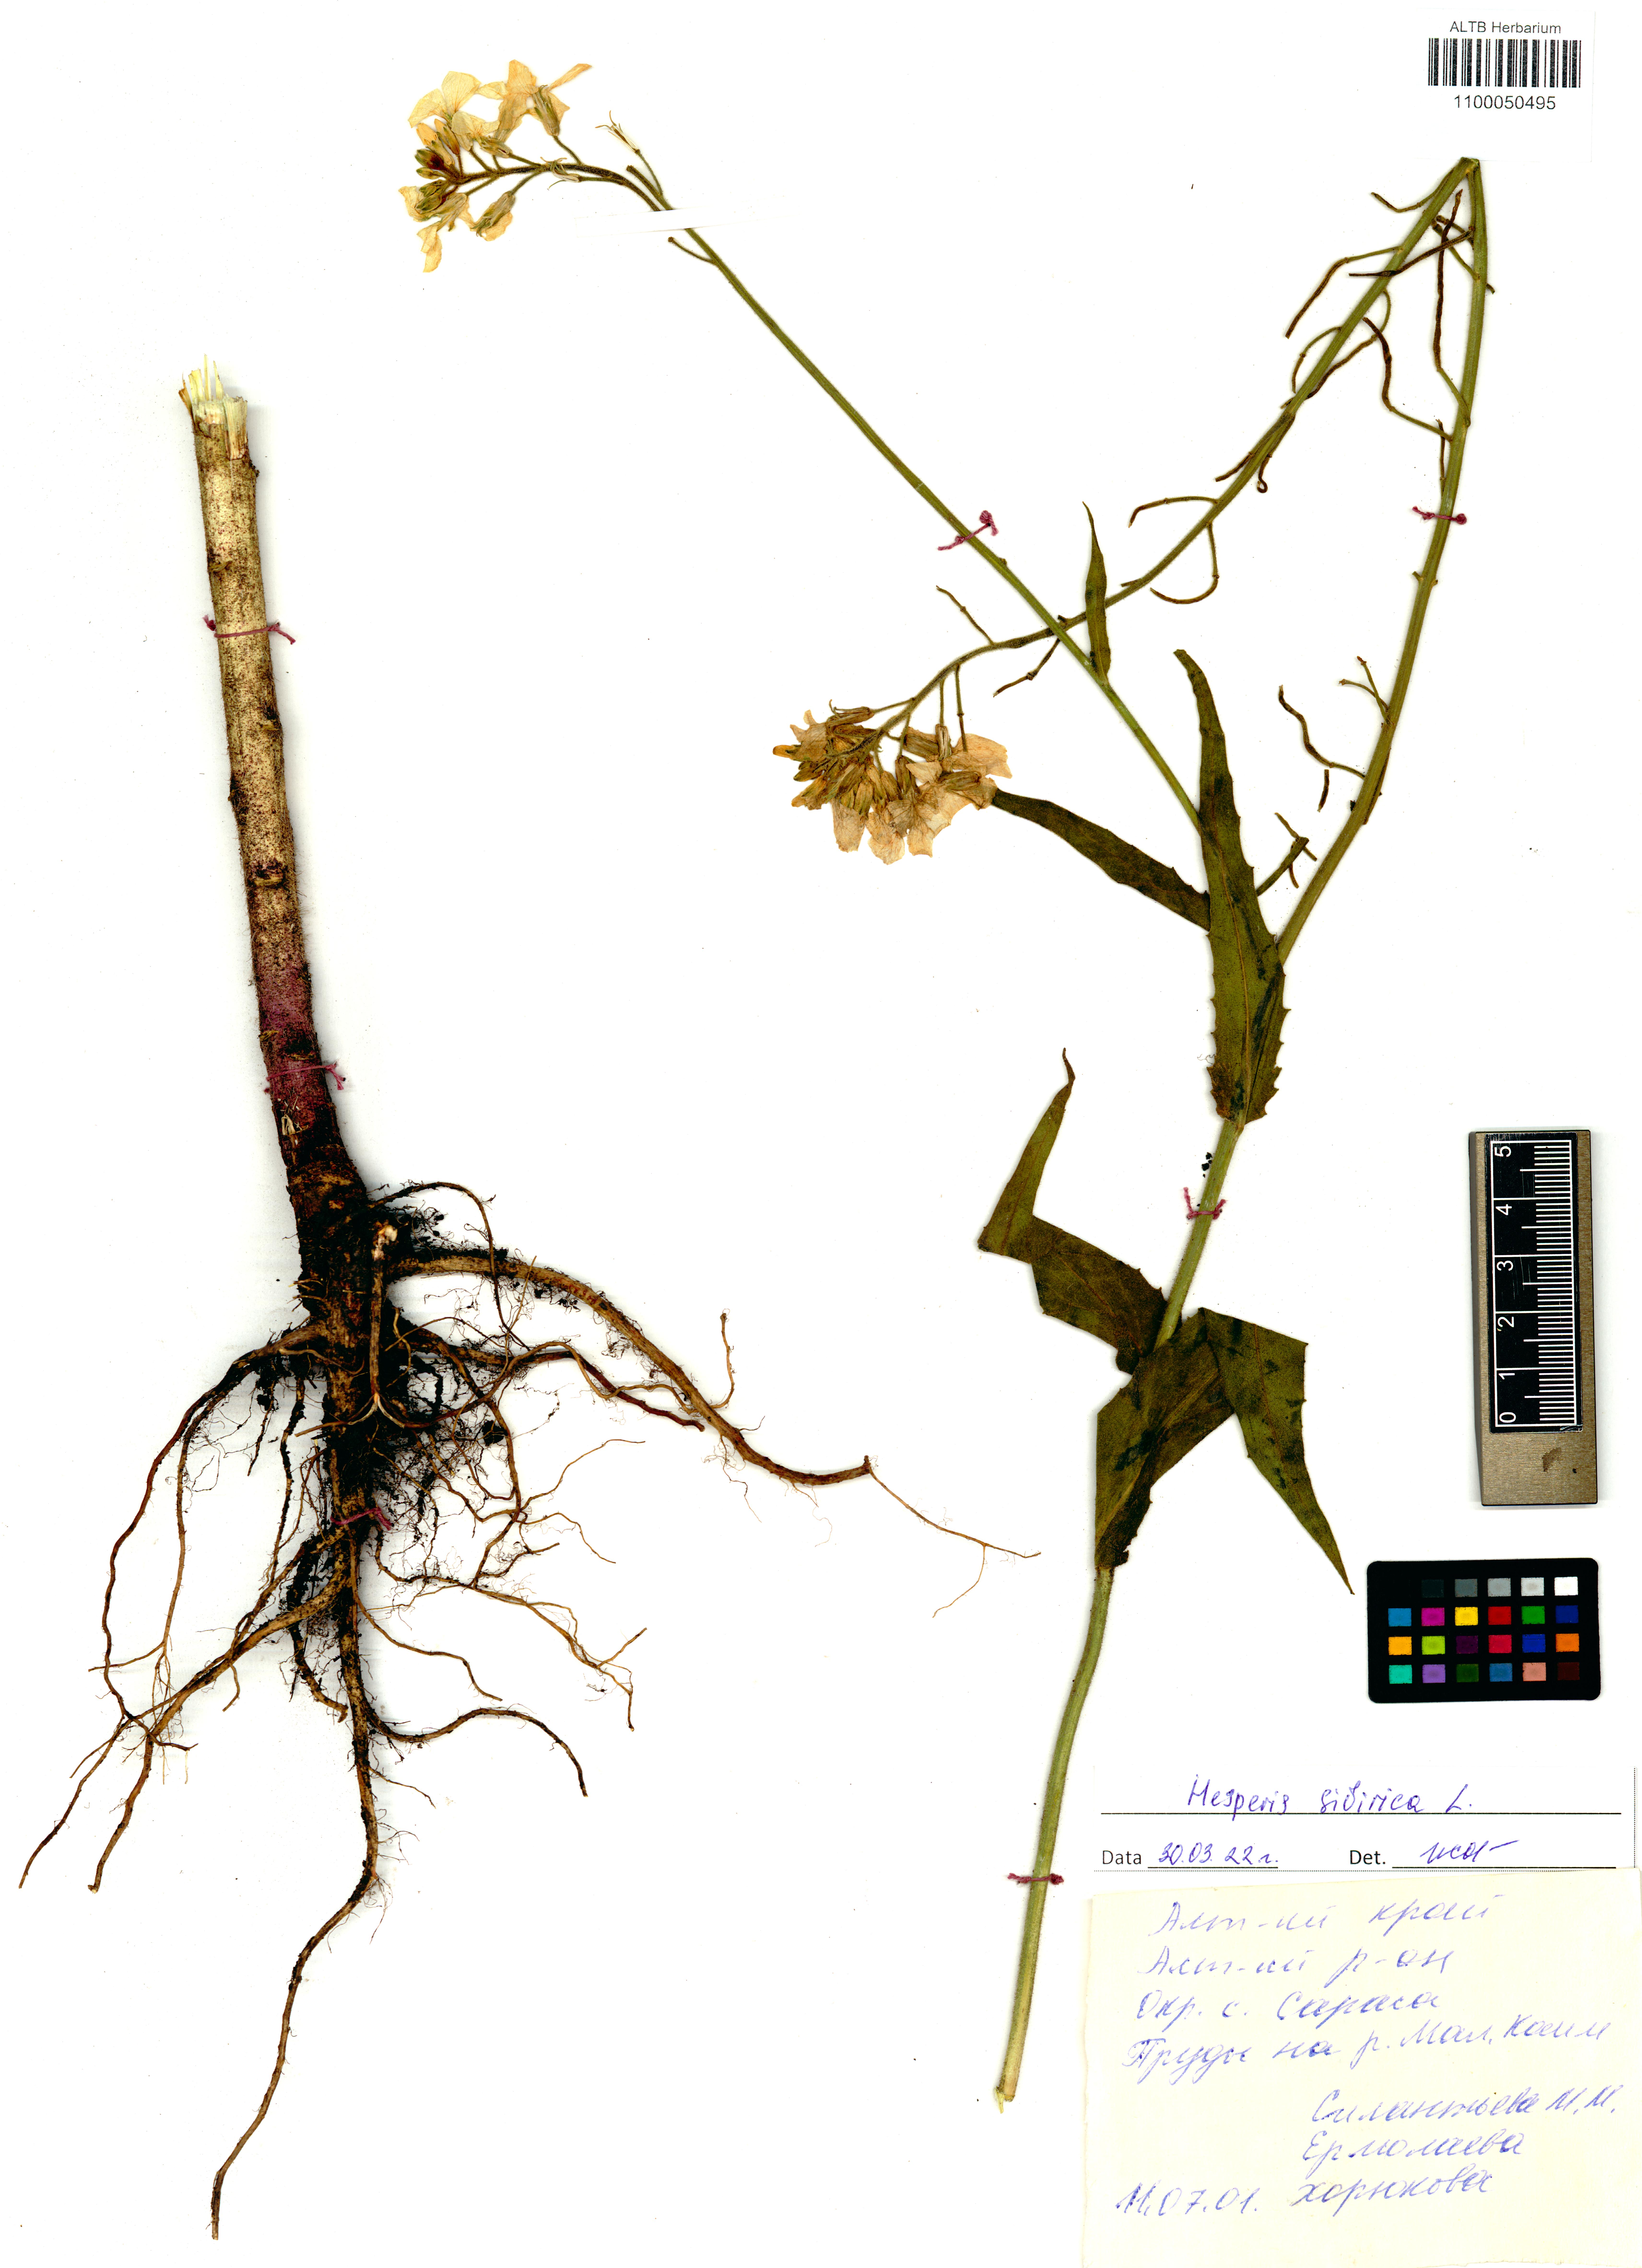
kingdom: Plantae
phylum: Tracheophyta
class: Magnoliopsida
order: Brassicales
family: Brassicaceae
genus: Hesperis
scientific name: Hesperis sibirica
